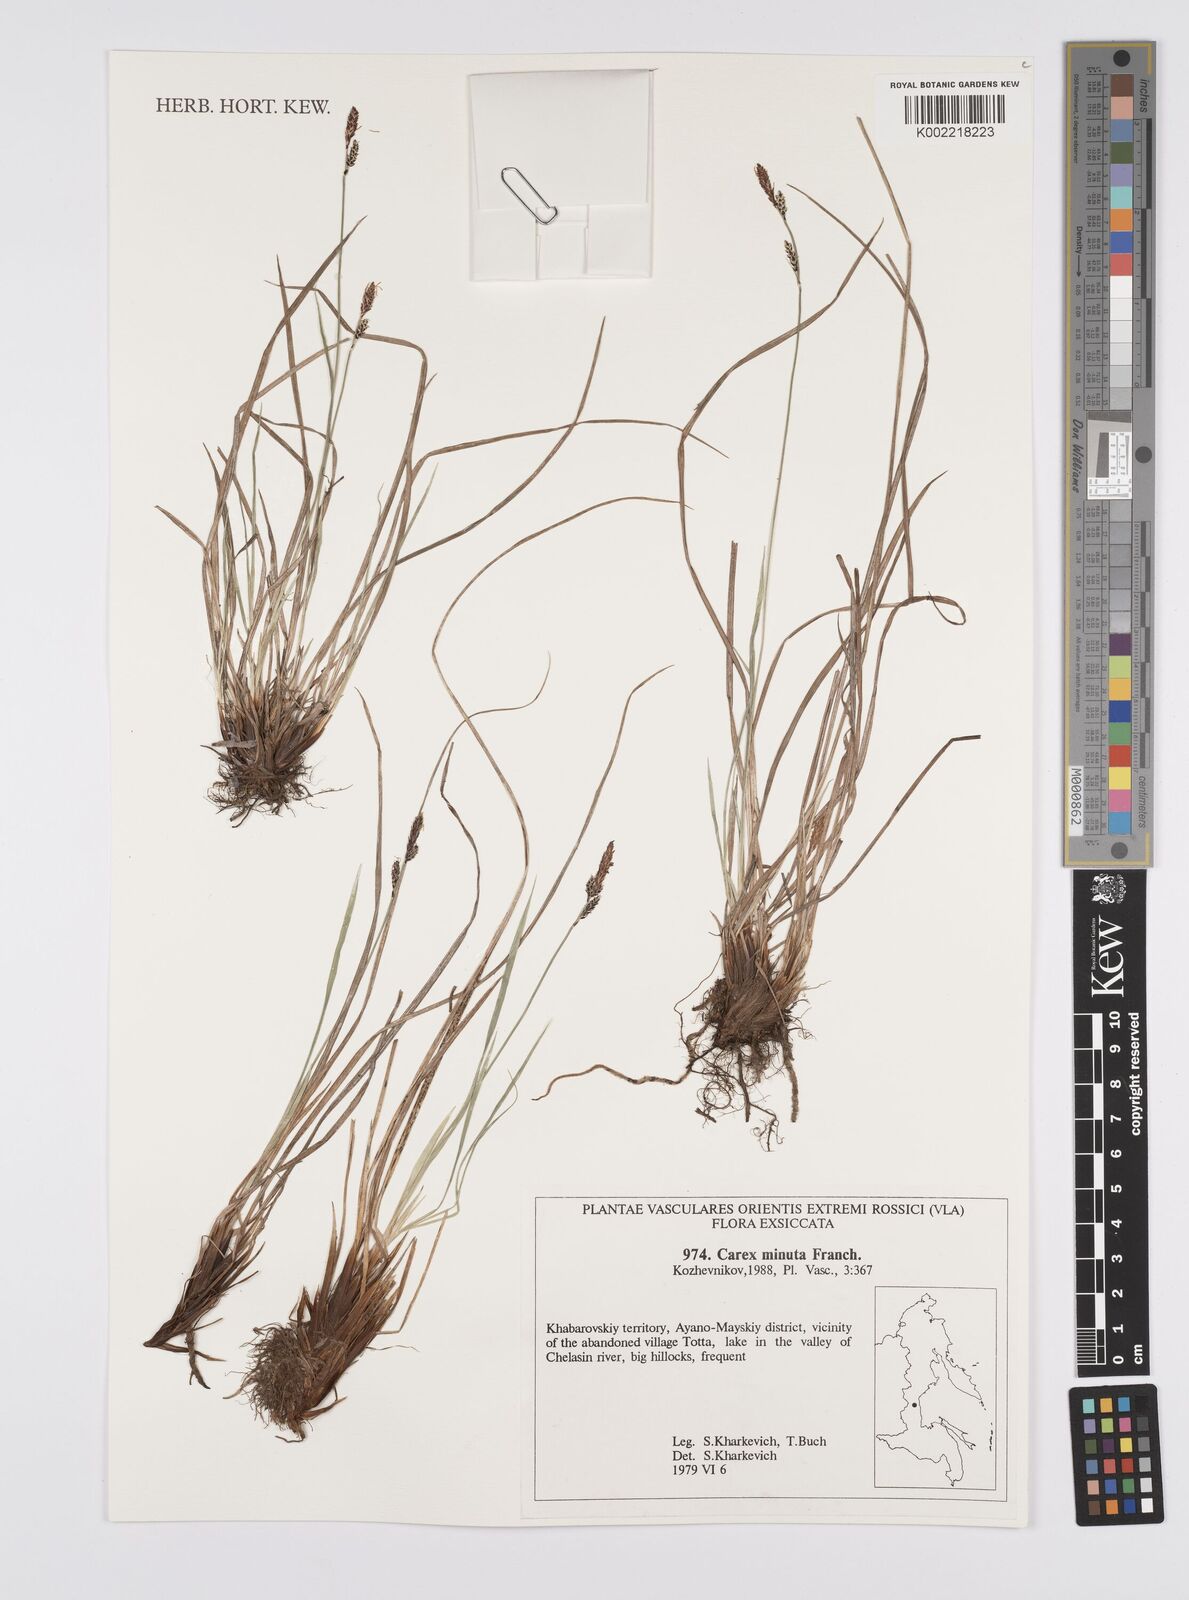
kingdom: Plantae
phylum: Tracheophyta
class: Liliopsida
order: Poales
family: Cyperaceae
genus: Carex
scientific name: Carex
